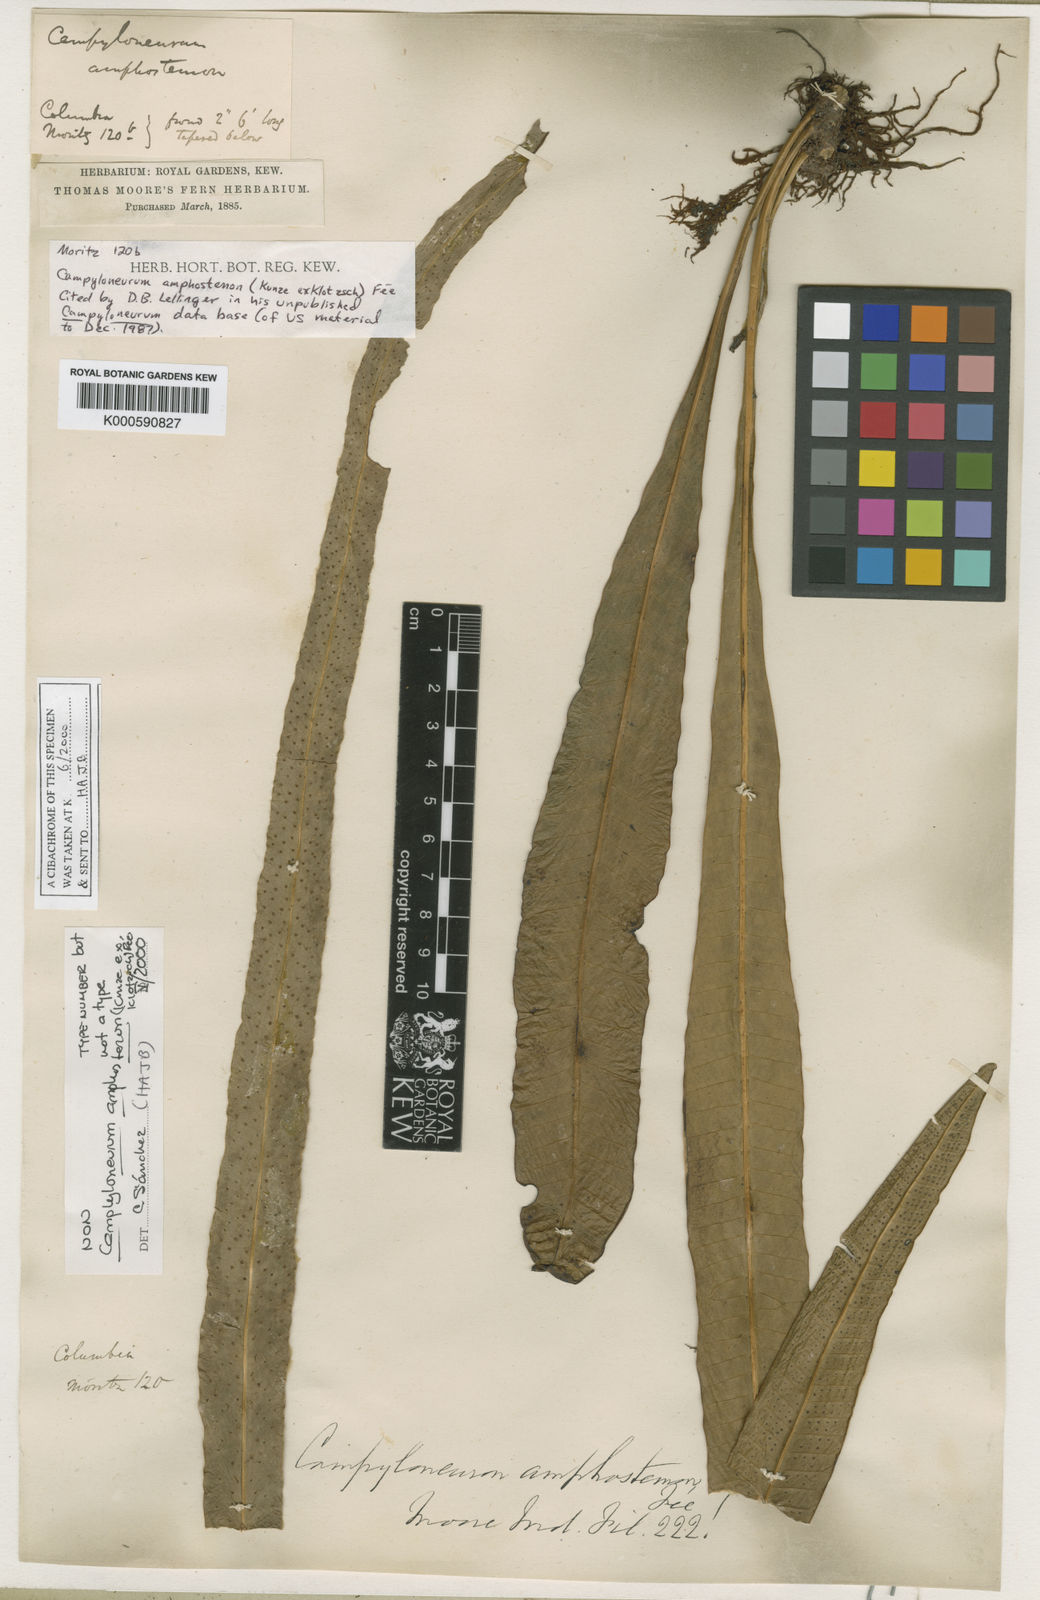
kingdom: Plantae
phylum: Tracheophyta
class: Polypodiopsida
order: Polypodiales
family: Polypodiaceae
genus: Campyloneurum
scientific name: Campyloneurum
